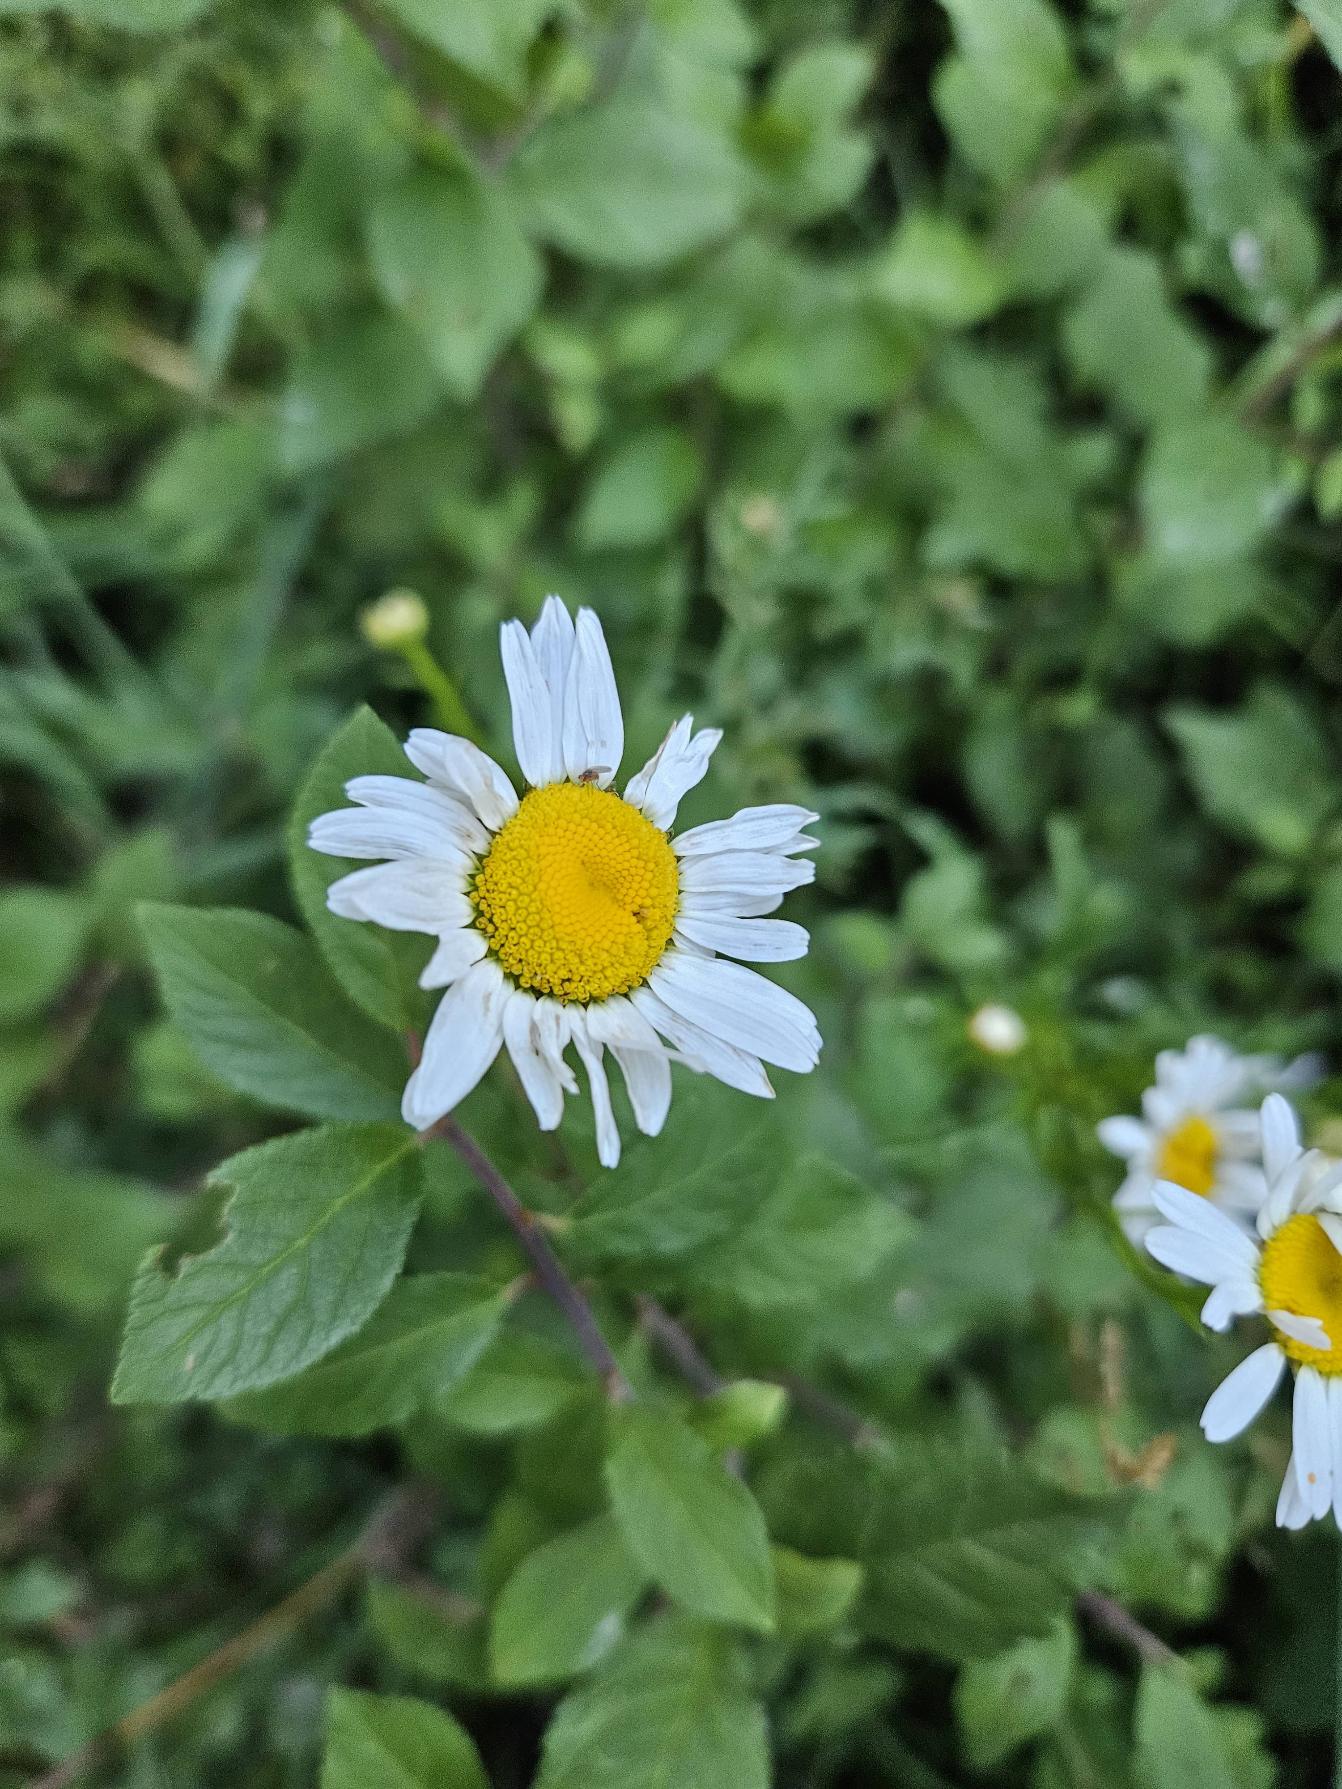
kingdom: Plantae
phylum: Tracheophyta
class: Magnoliopsida
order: Asterales
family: Asteraceae
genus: Leucanthemum
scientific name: Leucanthemum vulgare
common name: Hvid okseøje
